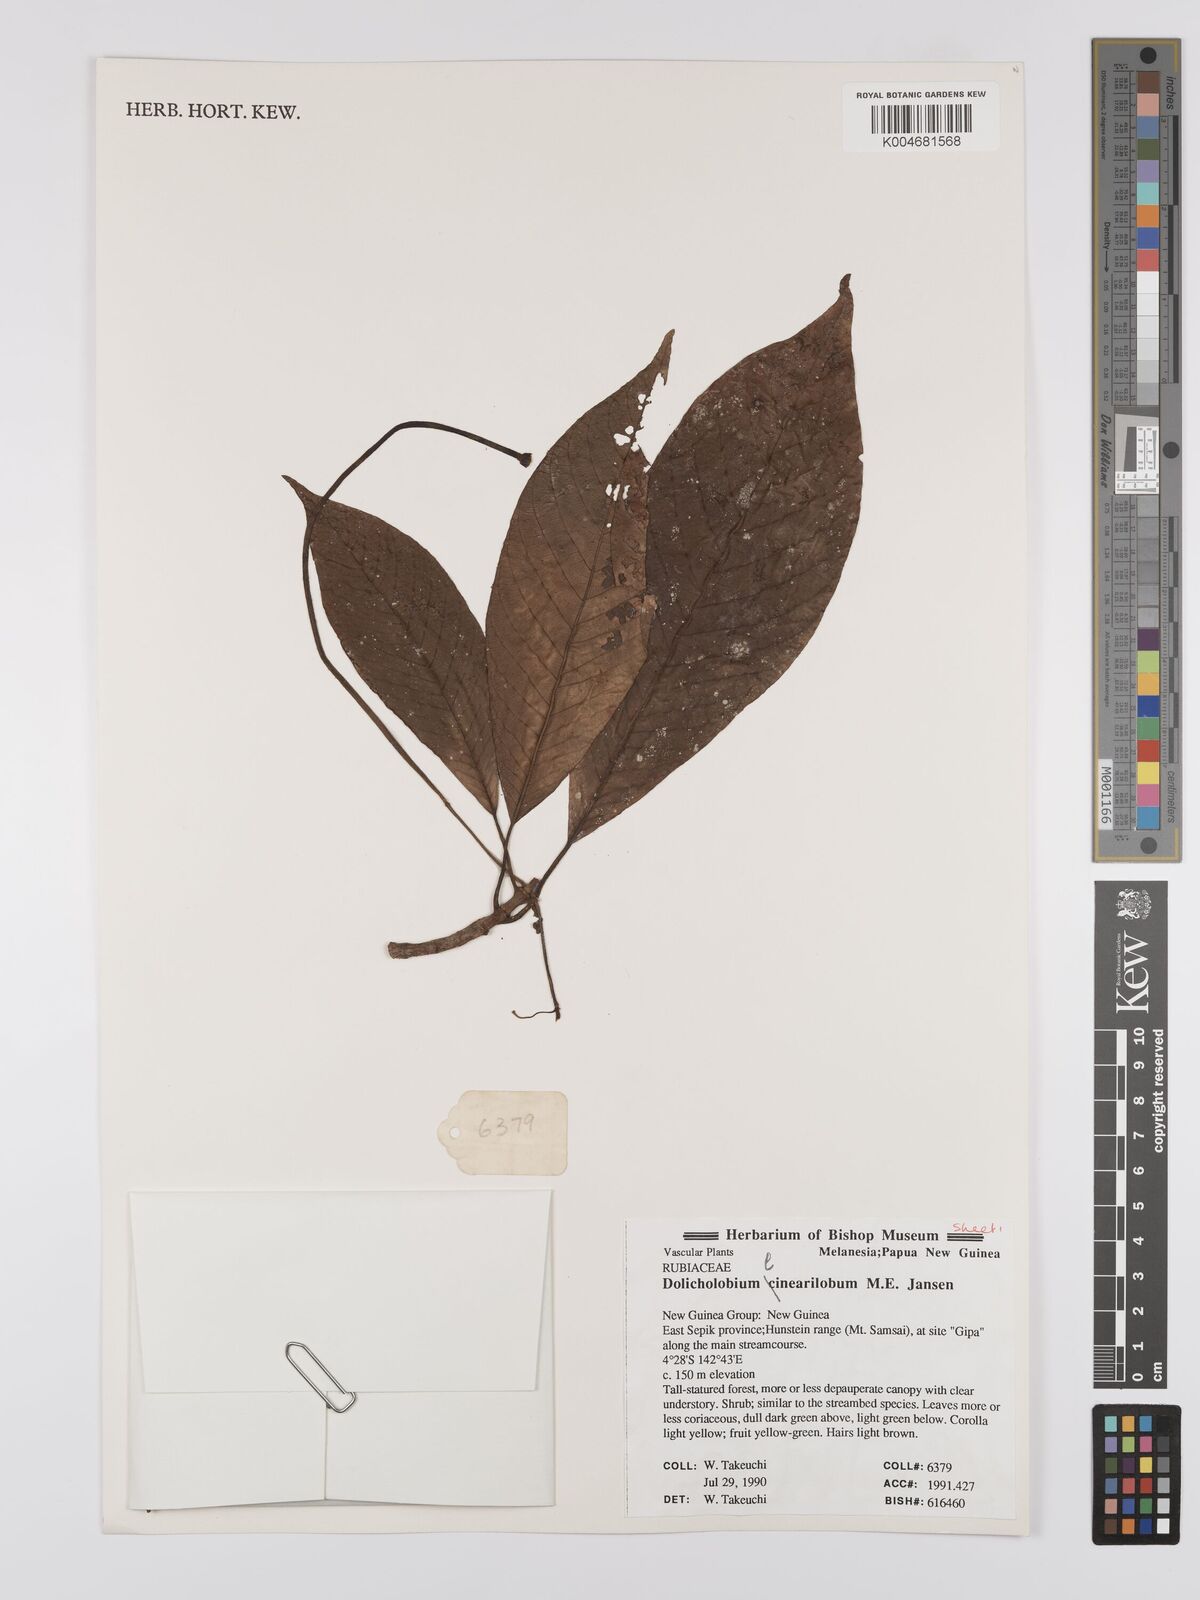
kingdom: Plantae
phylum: Tracheophyta
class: Magnoliopsida
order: Gentianales
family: Rubiaceae
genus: Dolicholobium
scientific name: Dolicholobium linearilobum
